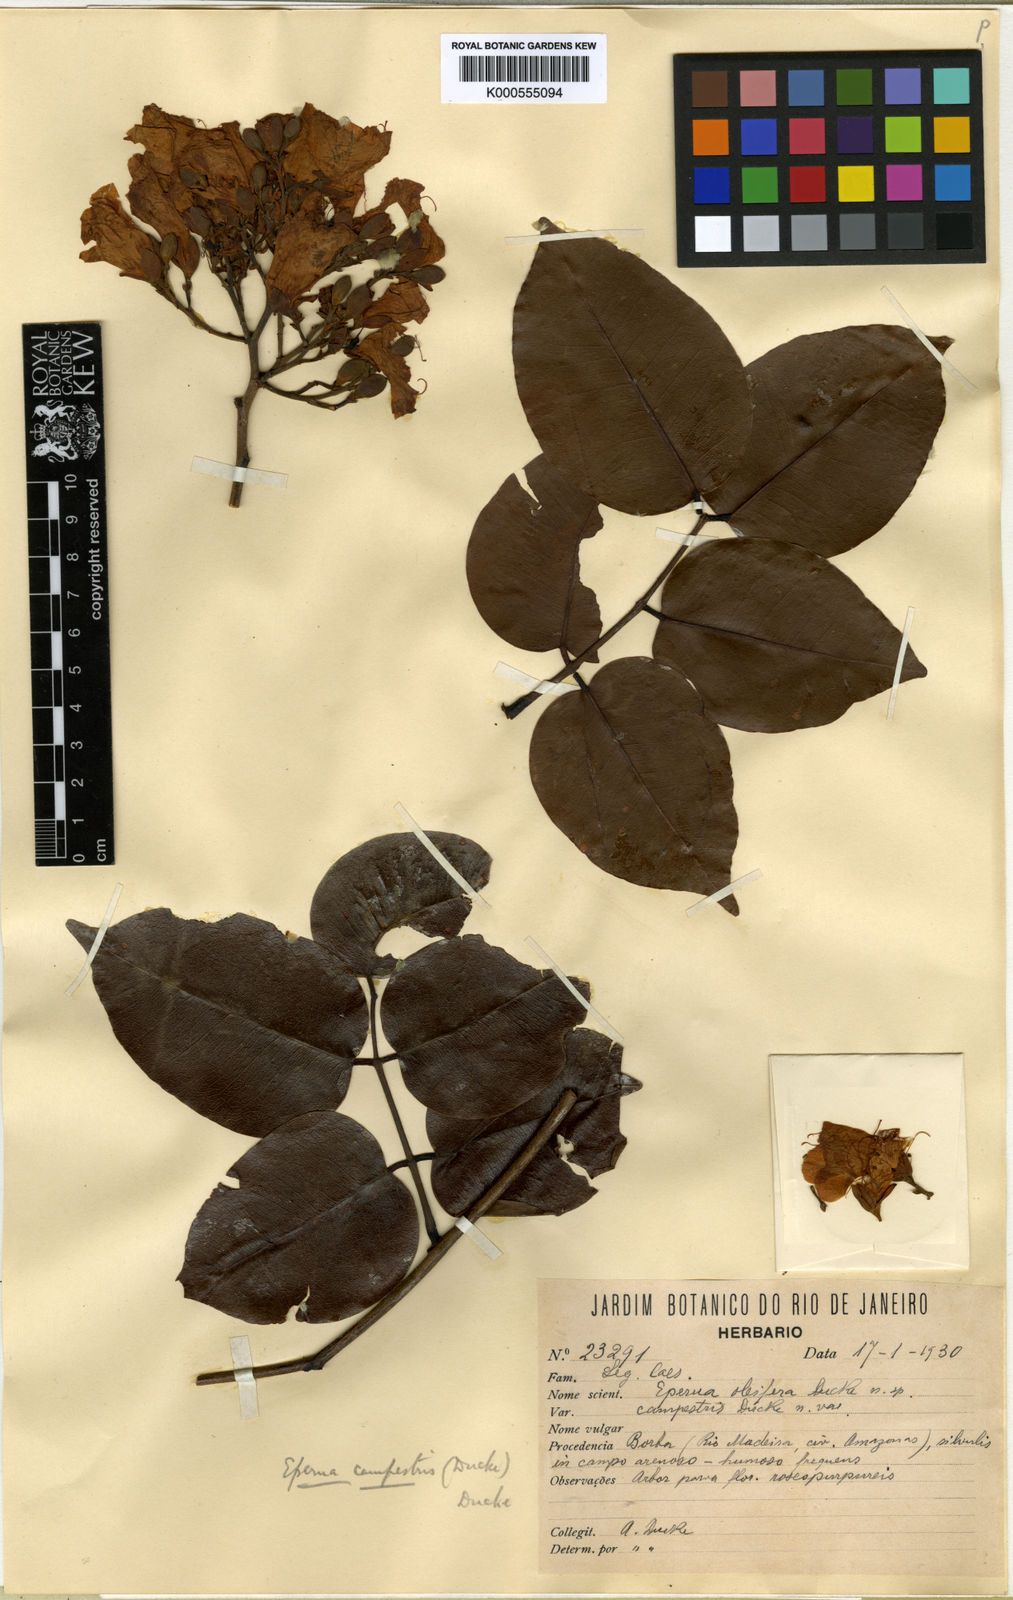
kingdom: Plantae
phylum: Tracheophyta
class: Magnoliopsida
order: Fabales
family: Fabaceae
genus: Eperua
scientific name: Eperua oleifera
